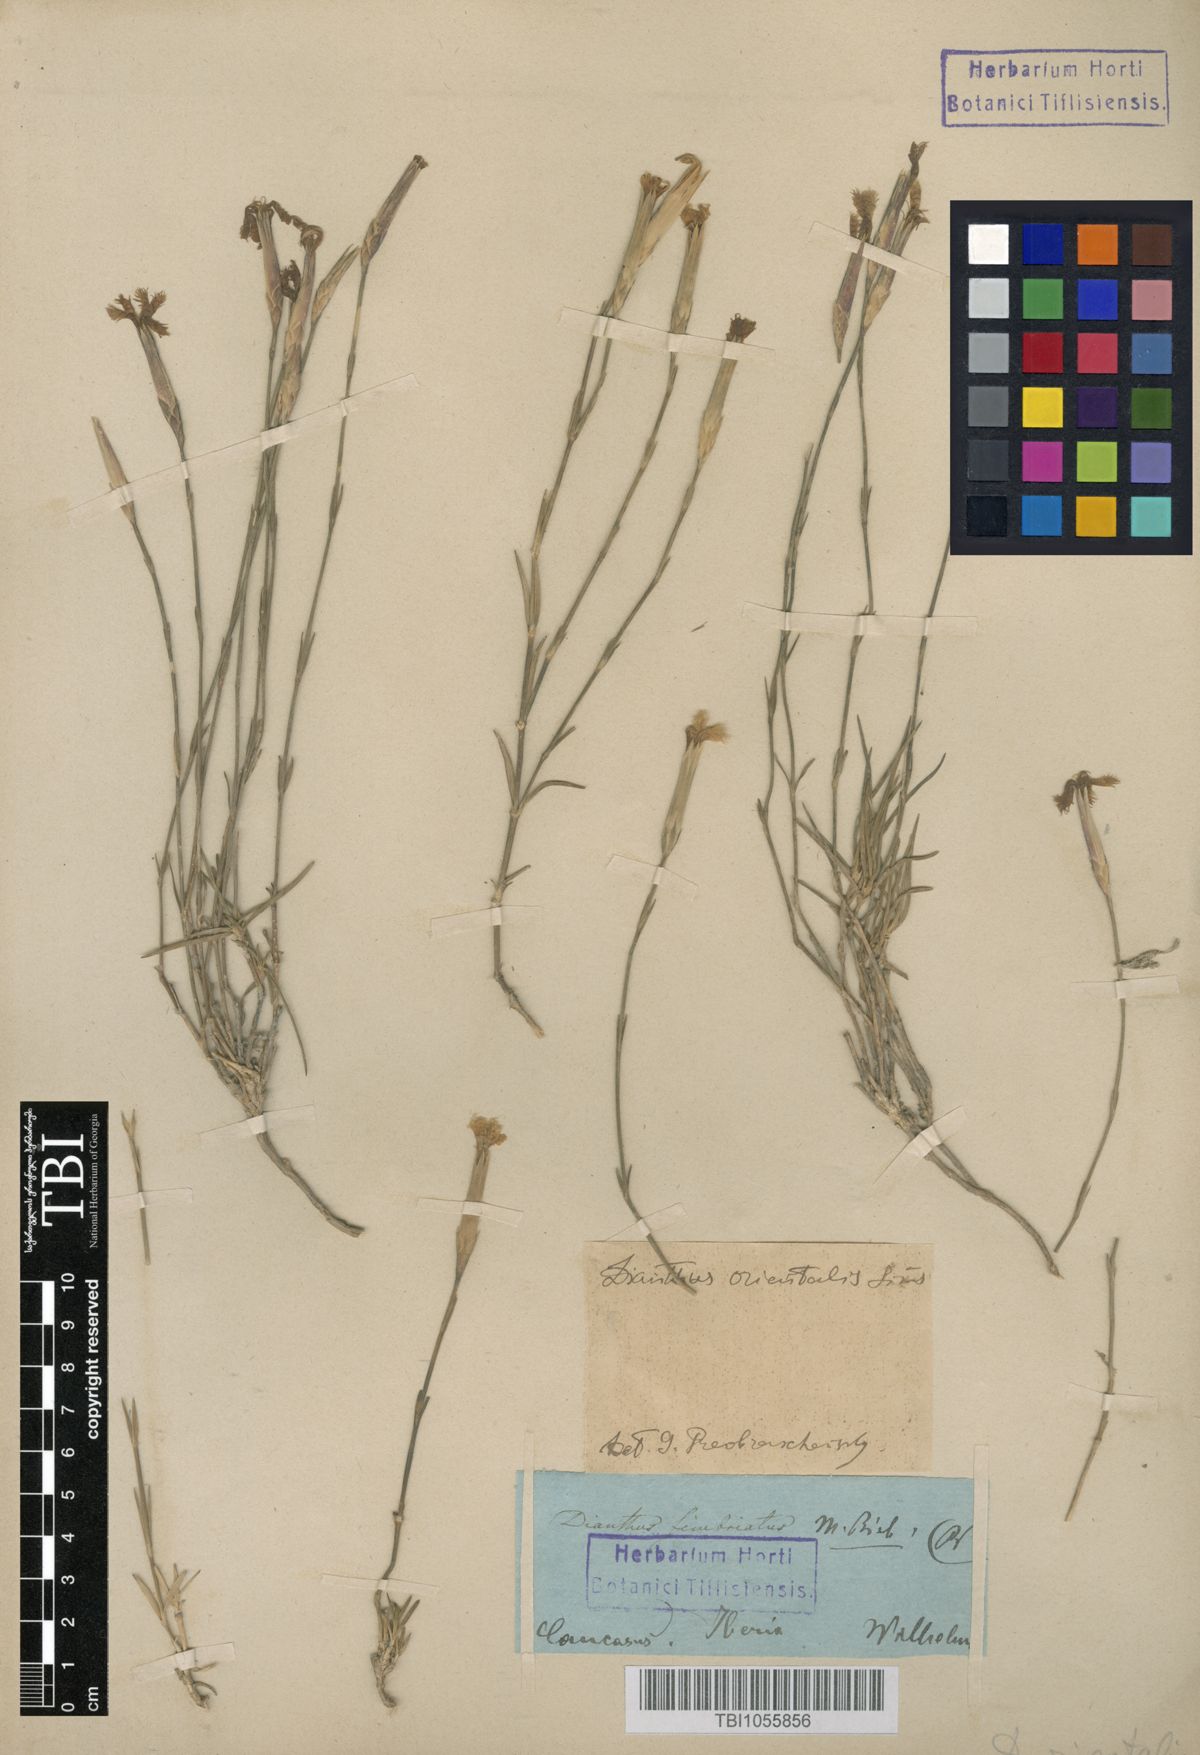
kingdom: Plantae
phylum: Tracheophyta
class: Magnoliopsida
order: Caryophyllales
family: Caryophyllaceae
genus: Dianthus
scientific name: Dianthus orientalis
